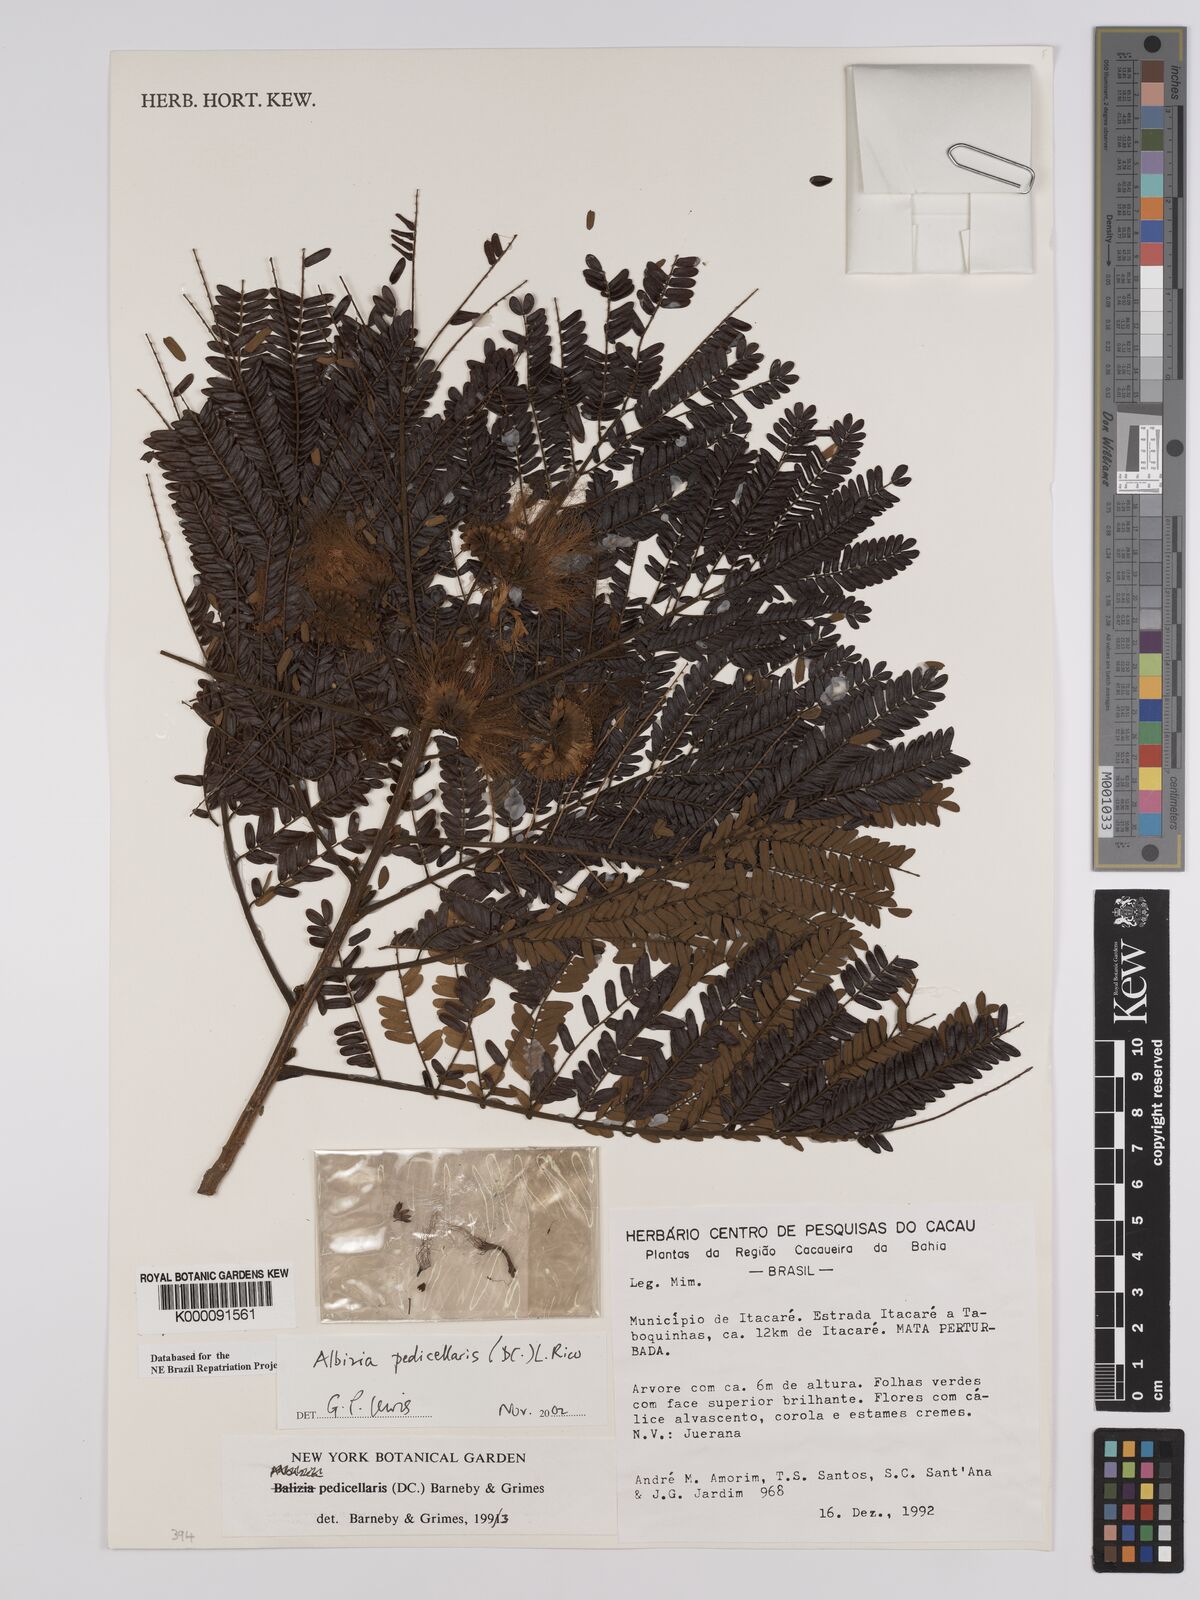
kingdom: Plantae
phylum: Tracheophyta
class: Magnoliopsida
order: Fabales
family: Fabaceae
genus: Balizia
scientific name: Balizia pedicellaris
